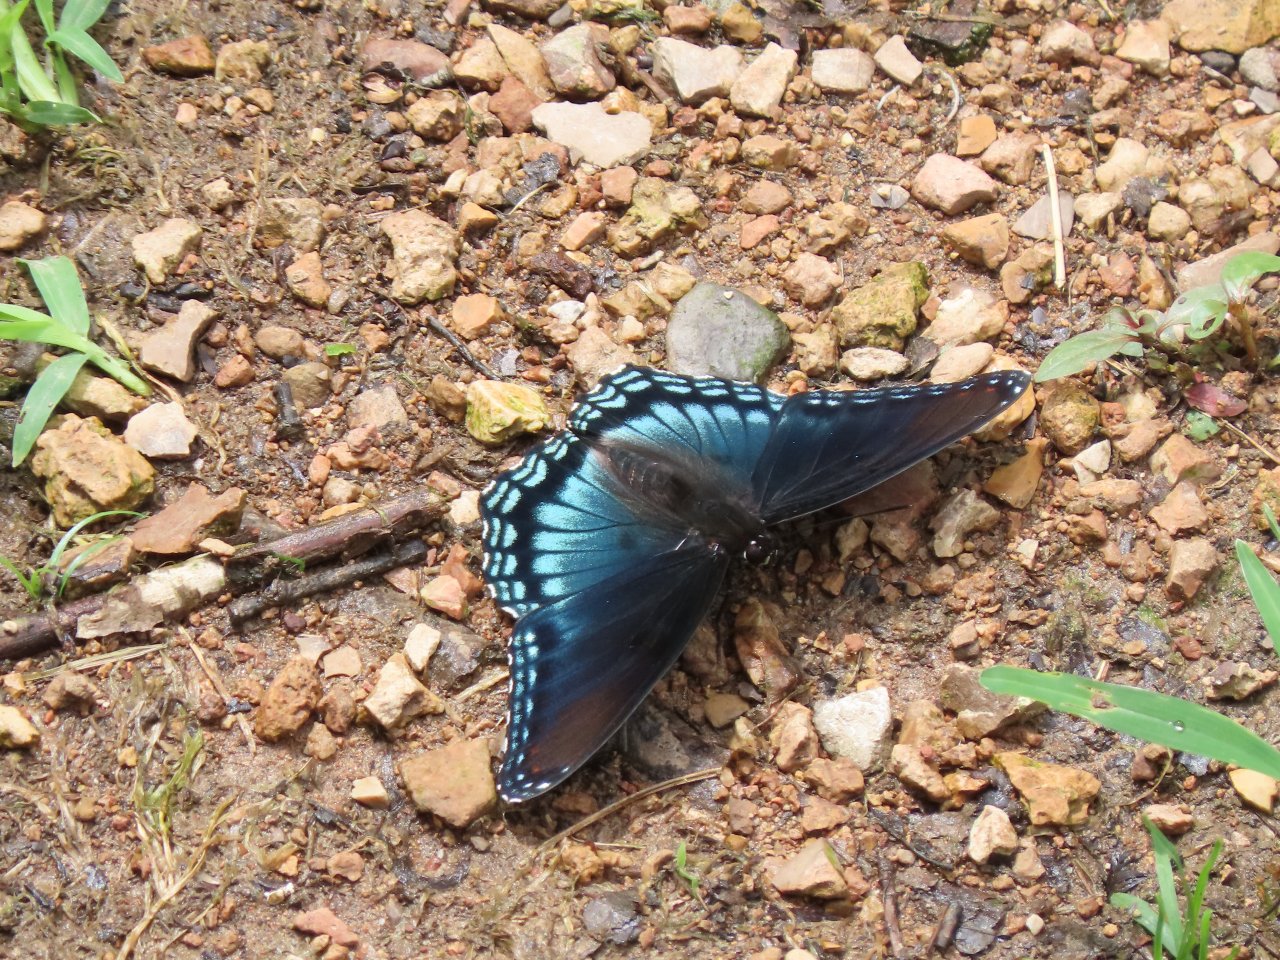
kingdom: Animalia
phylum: Arthropoda
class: Insecta
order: Lepidoptera
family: Nymphalidae
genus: Limenitis
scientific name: Limenitis astyanax
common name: Red-spotted Purple
